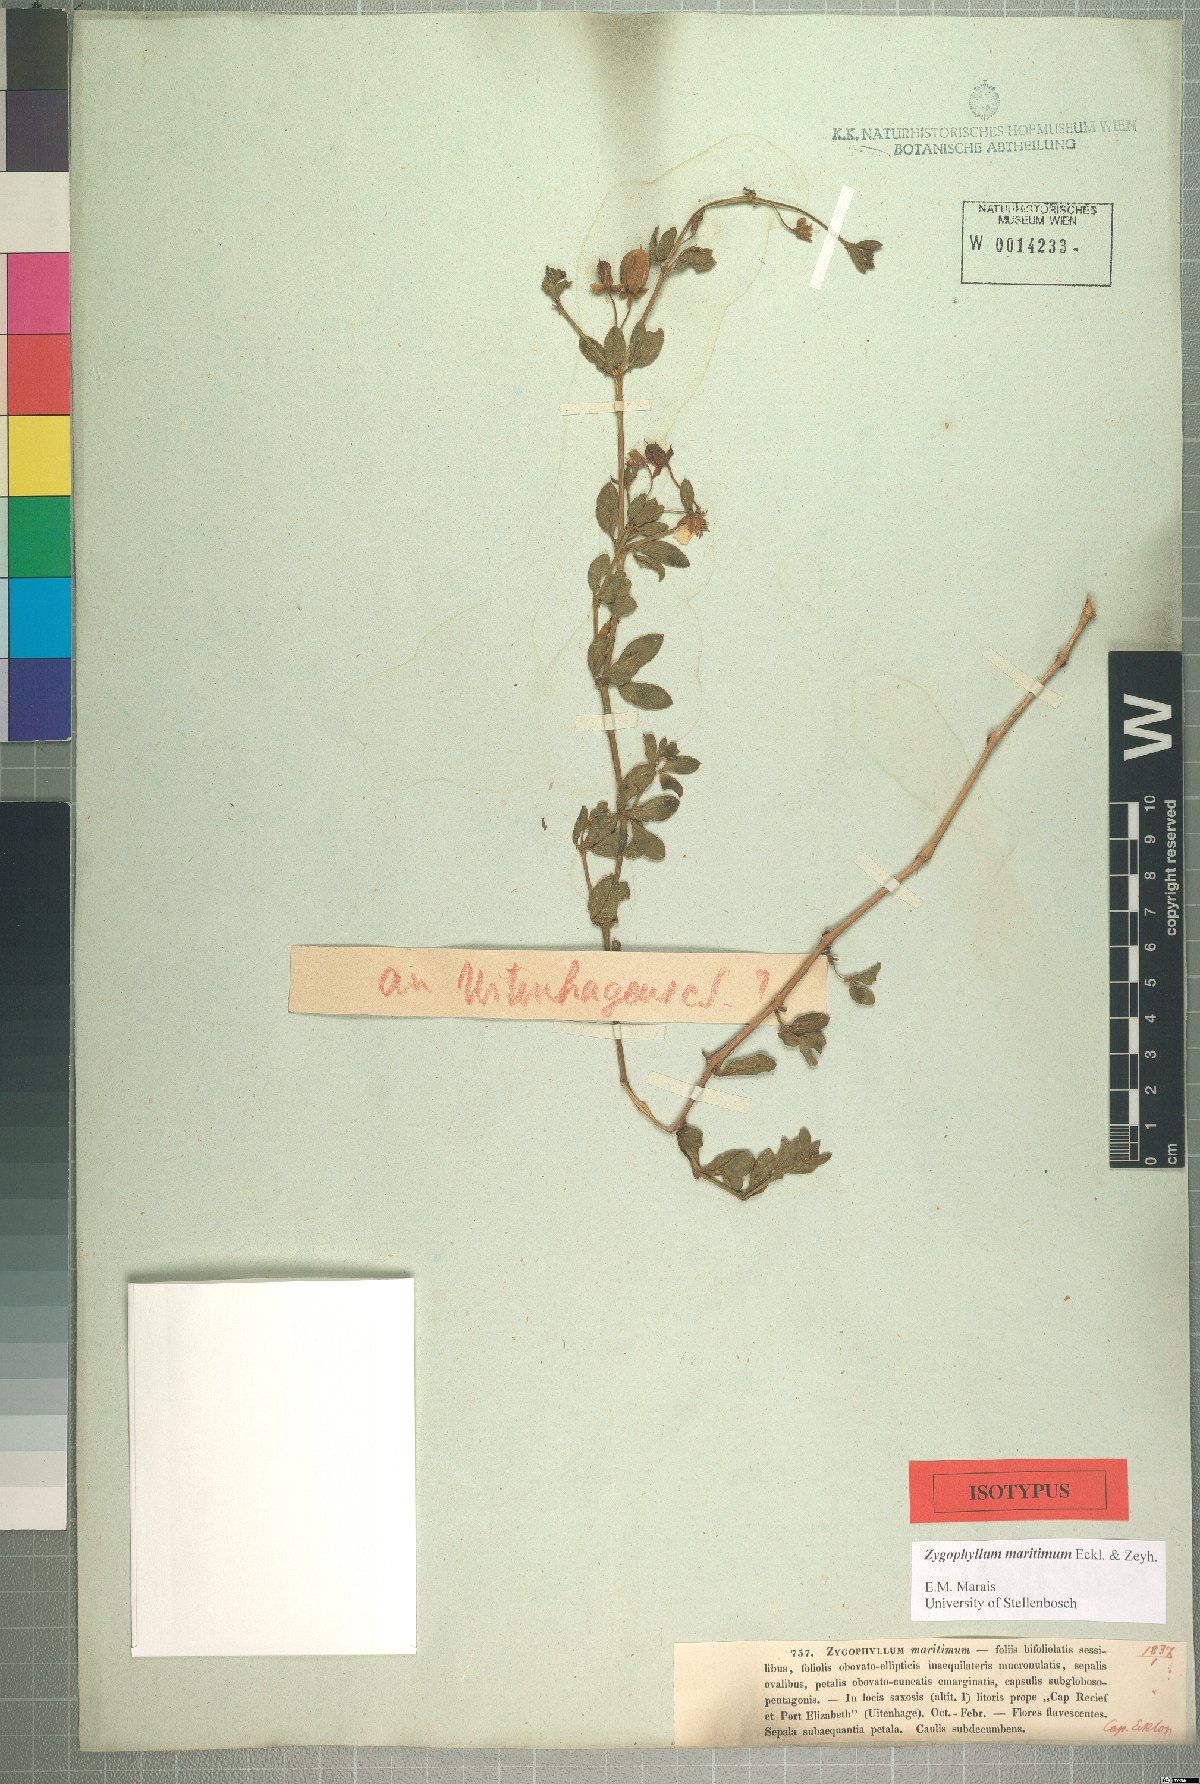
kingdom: Plantae
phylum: Tracheophyta
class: Magnoliopsida
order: Zygophyllales
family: Zygophyllaceae
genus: Roepera
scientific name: Roepera maritima
